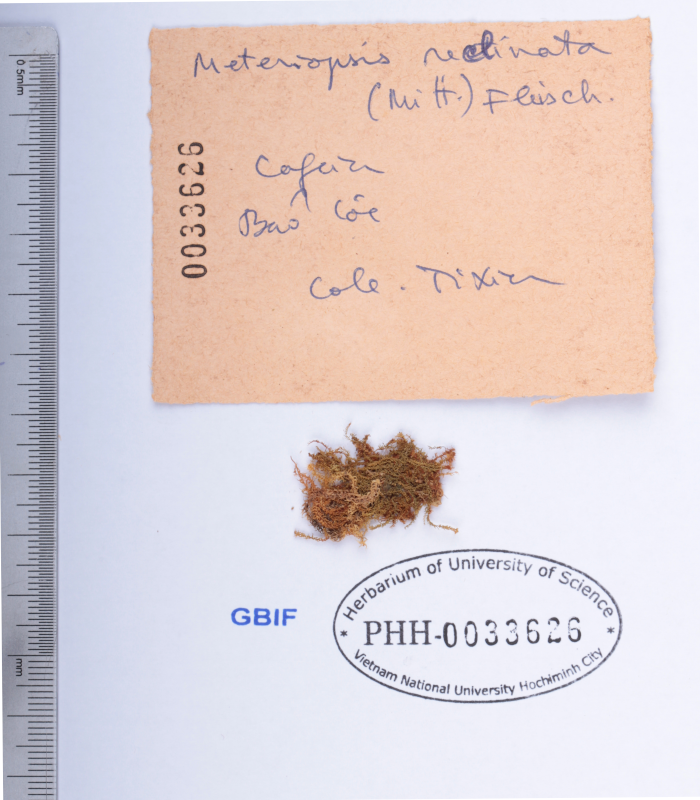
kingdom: Plantae
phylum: Bryophyta
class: Bryopsida
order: Hypnales
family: Meteoriaceae
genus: Meteoriopsis
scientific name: Meteoriopsis reclinata
